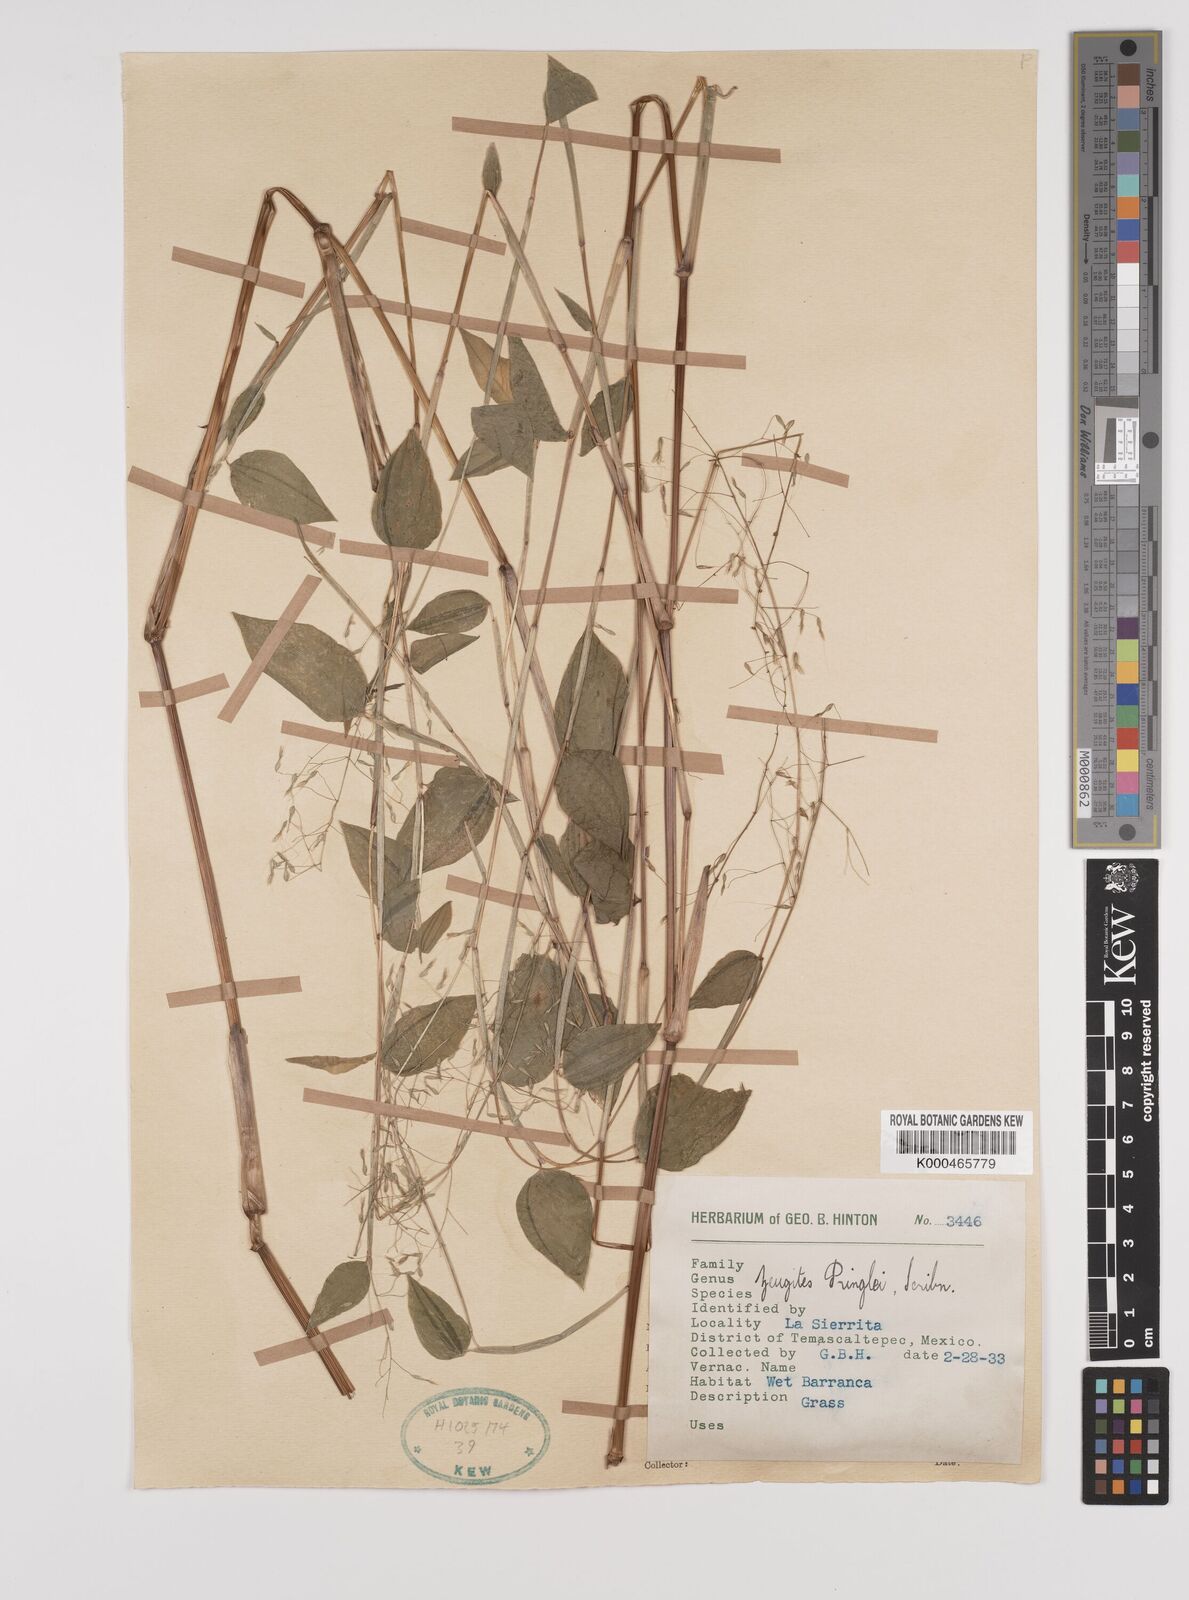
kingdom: Plantae
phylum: Tracheophyta
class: Liliopsida
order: Poales
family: Poaceae
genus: Zeugites
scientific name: Zeugites americanus
